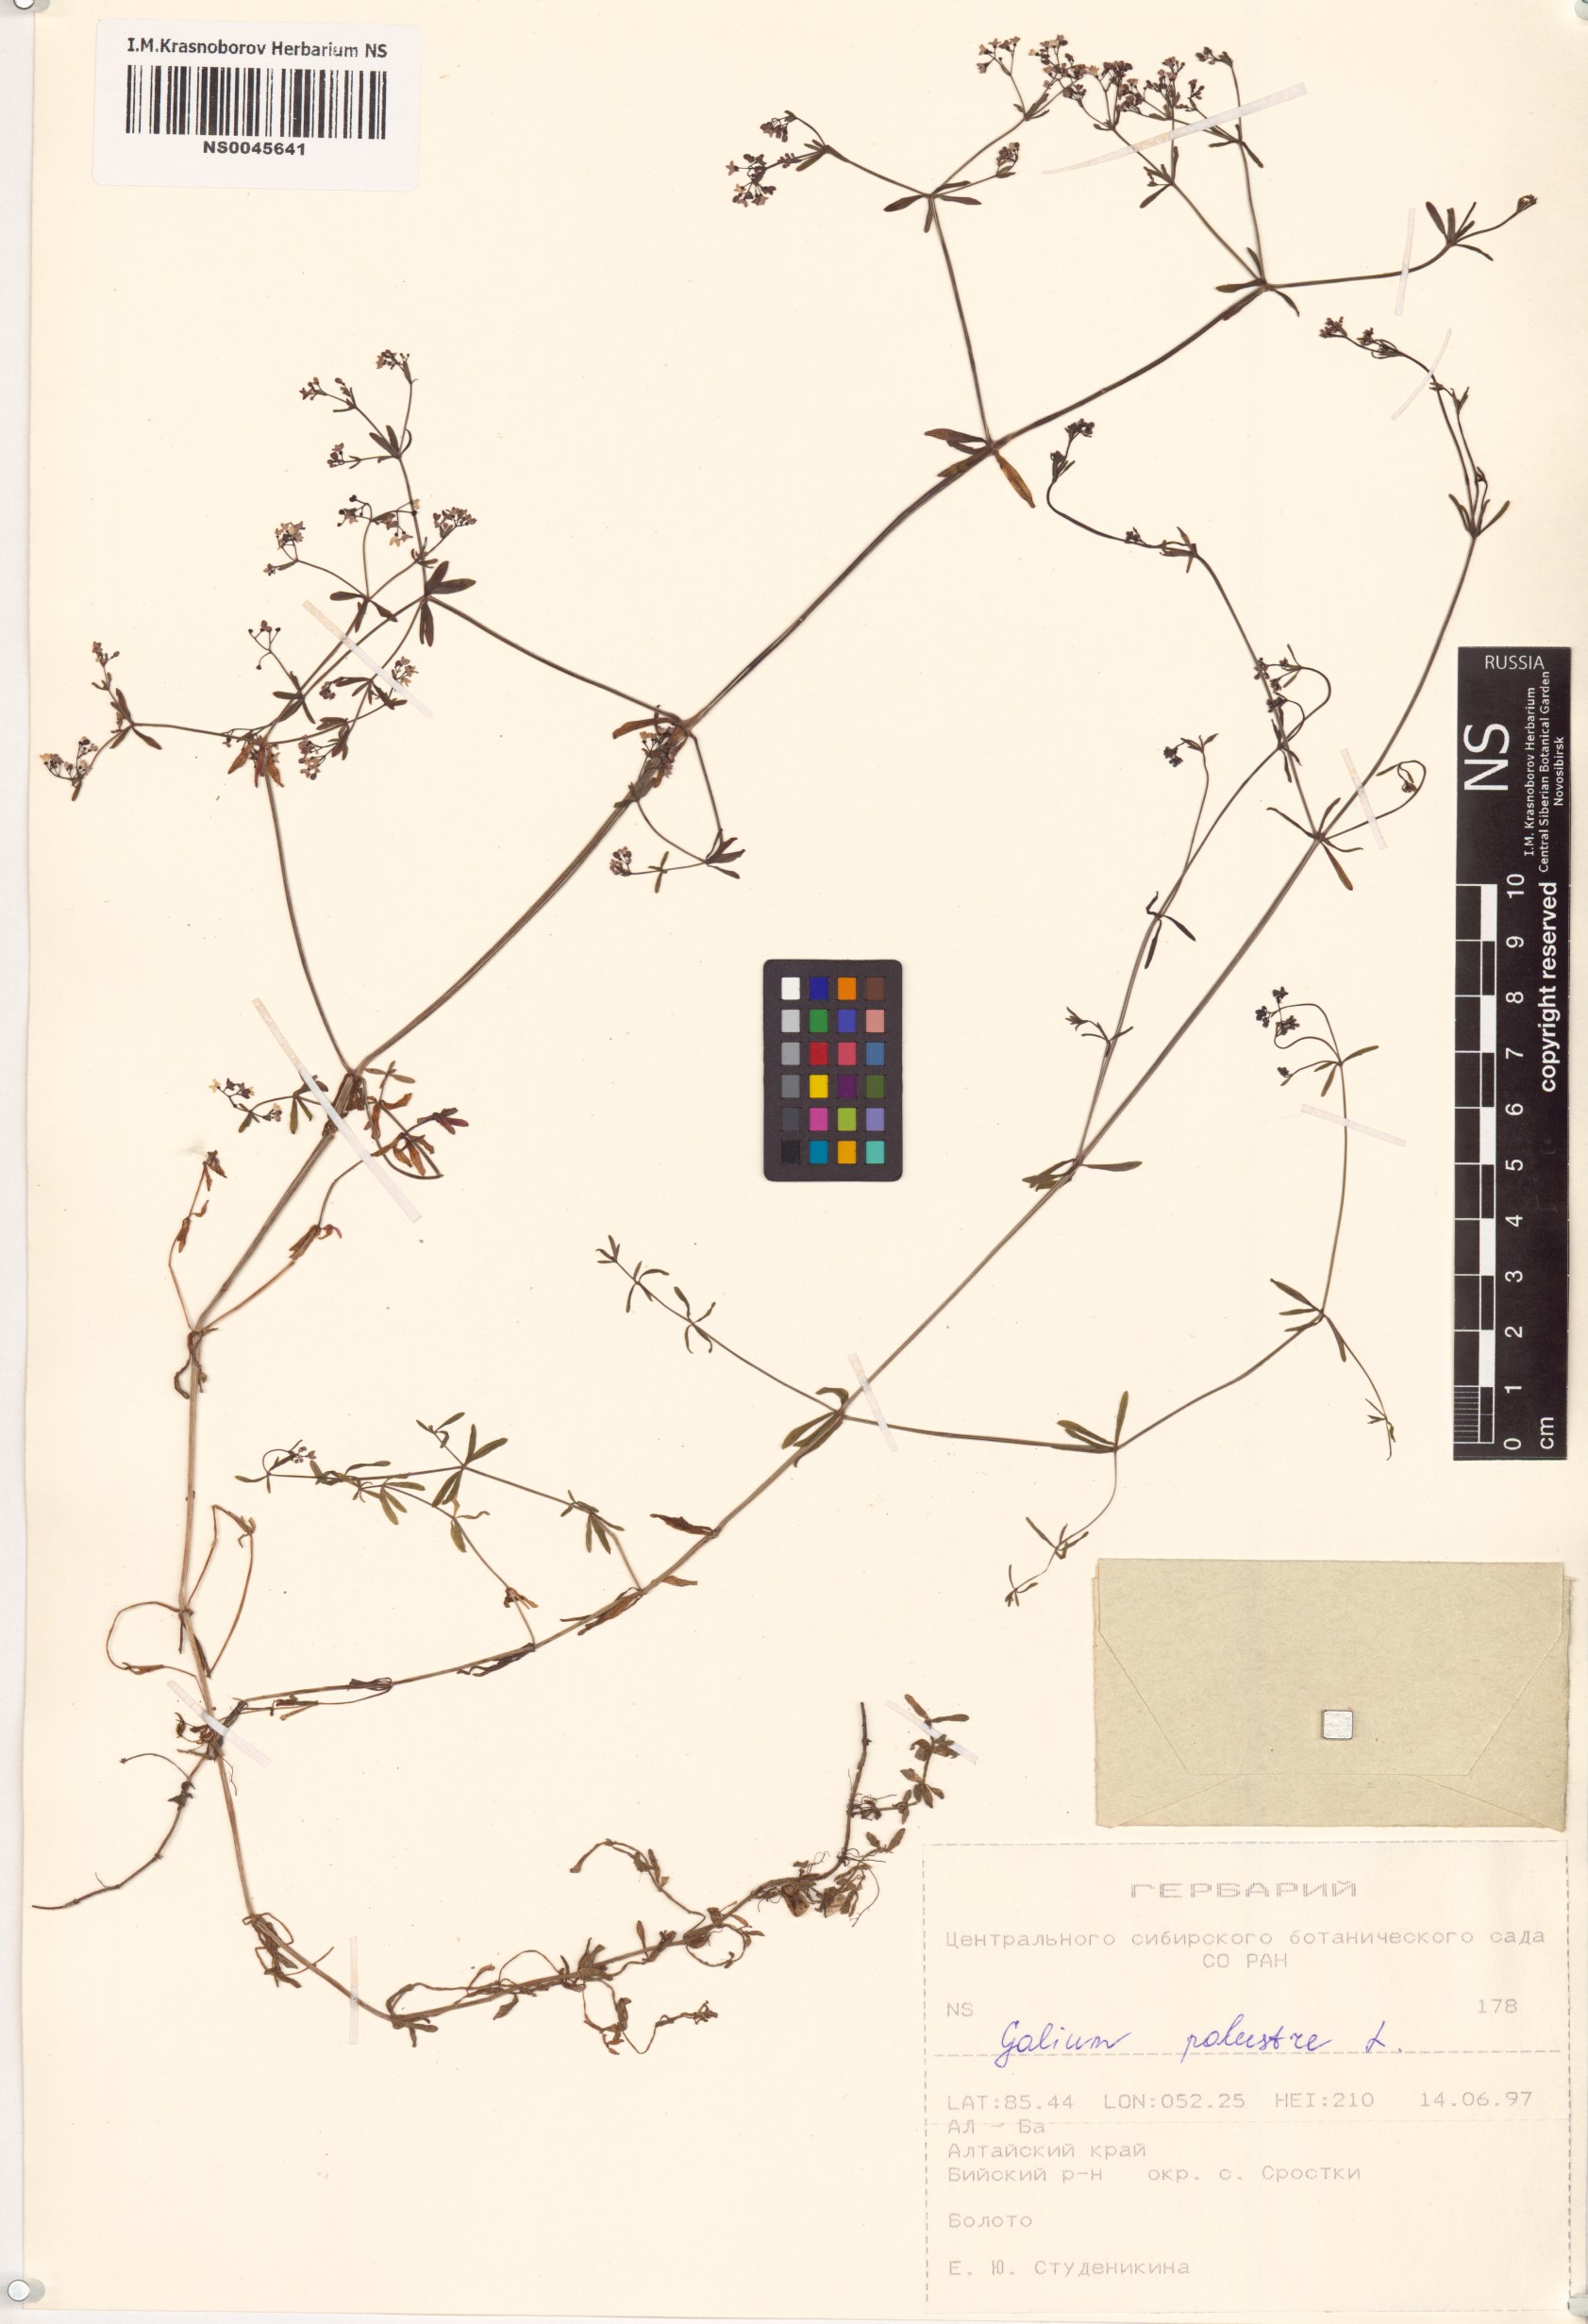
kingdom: Plantae
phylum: Tracheophyta
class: Magnoliopsida
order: Gentianales
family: Rubiaceae
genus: Galium
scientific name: Galium palustre
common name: Common marsh-bedstraw
